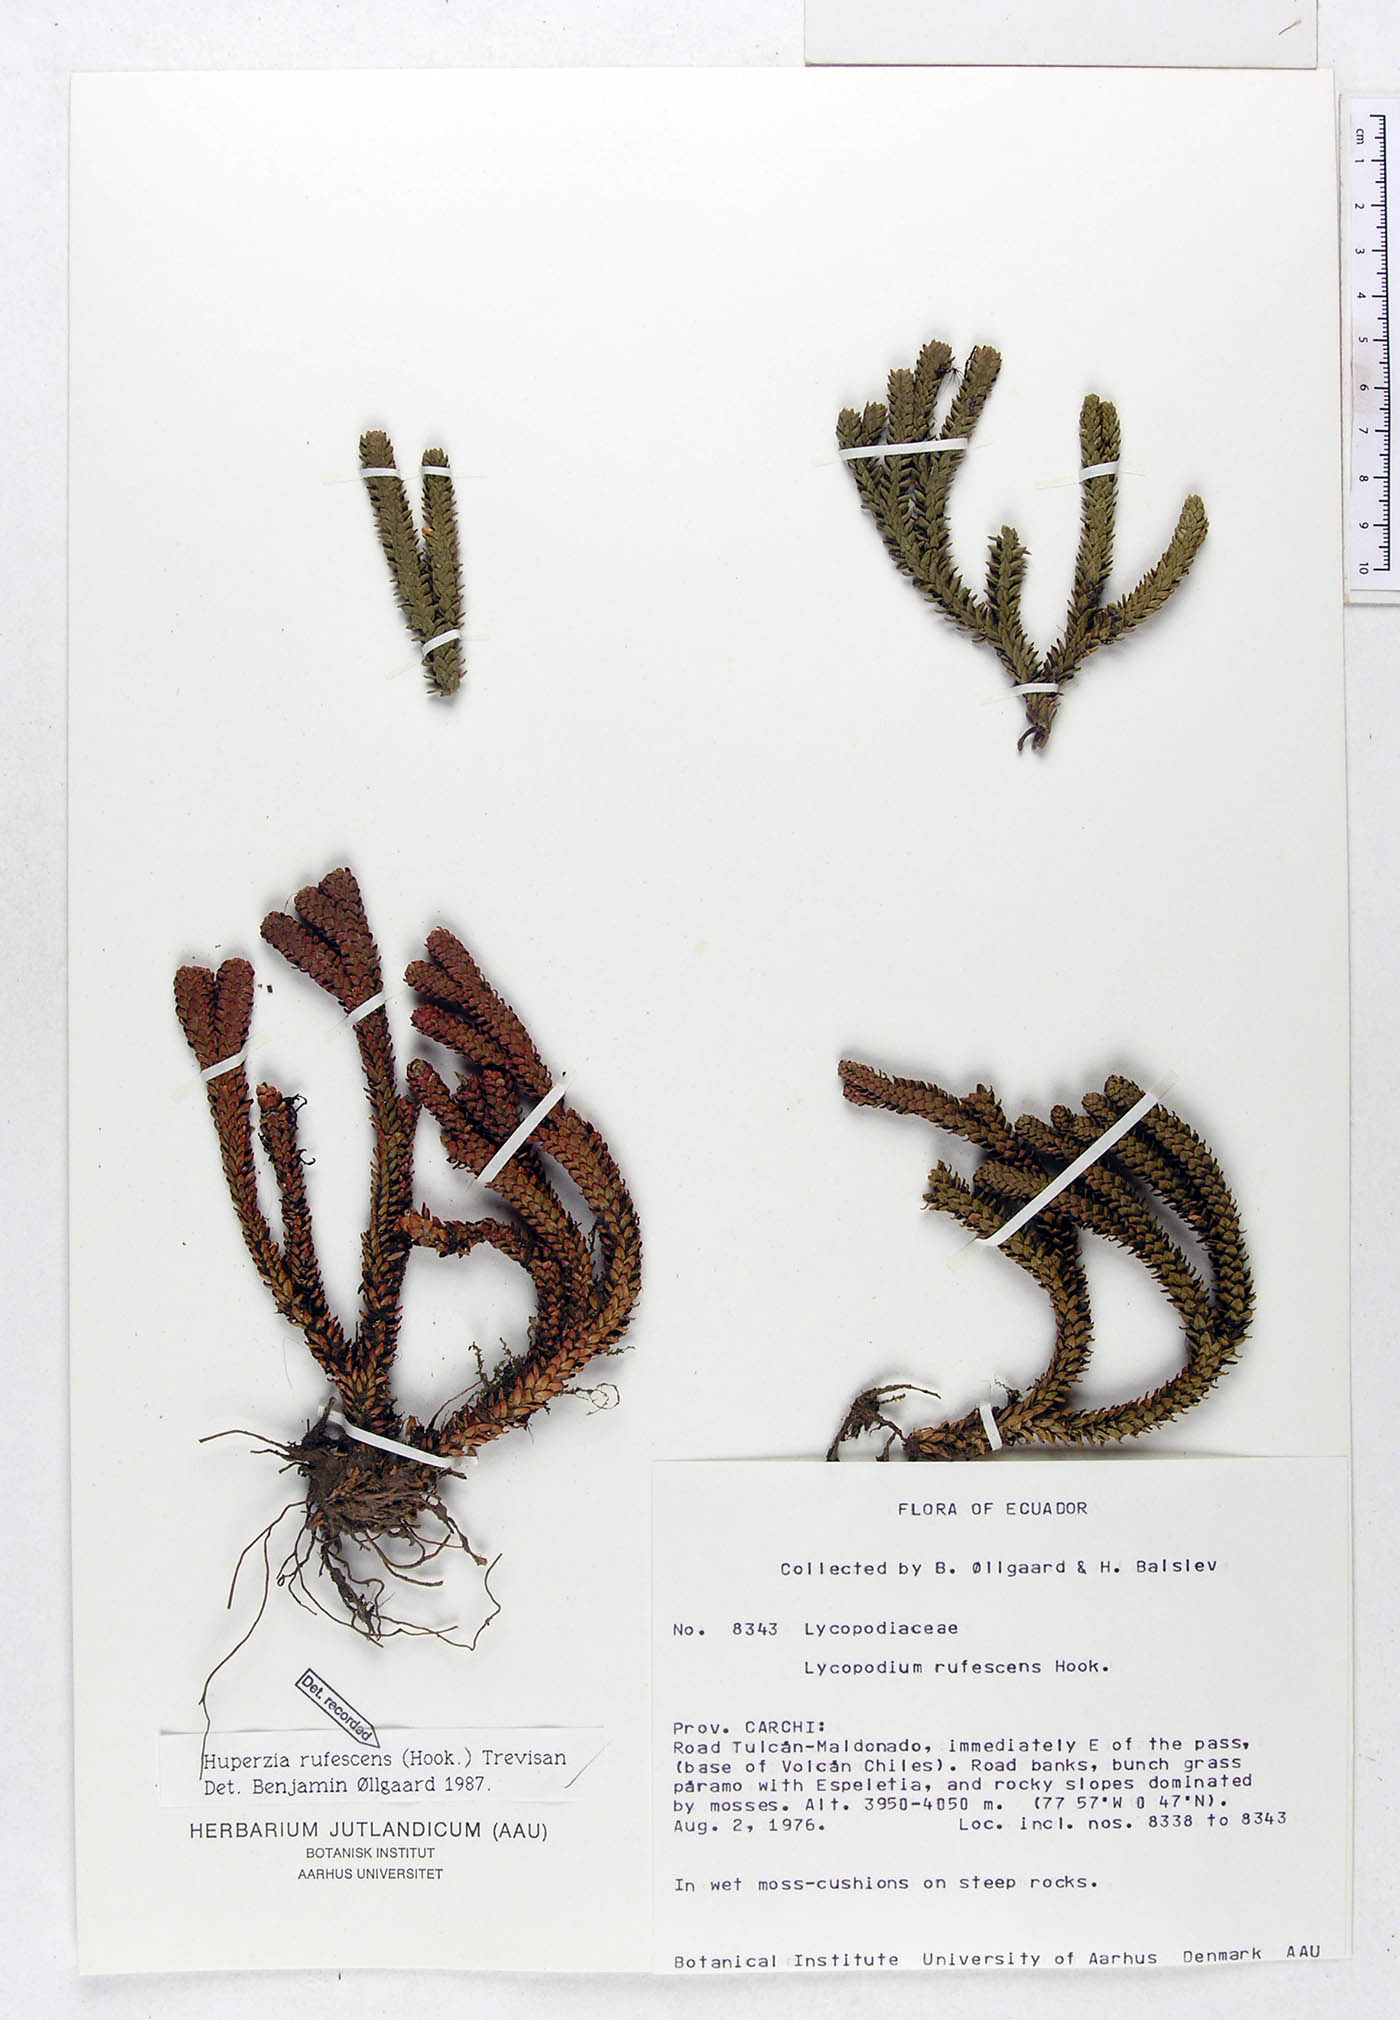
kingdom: Plantae
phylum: Tracheophyta
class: Lycopodiopsida
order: Lycopodiales
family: Lycopodiaceae
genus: Phlegmariurus
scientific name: Phlegmariurus rufescens
